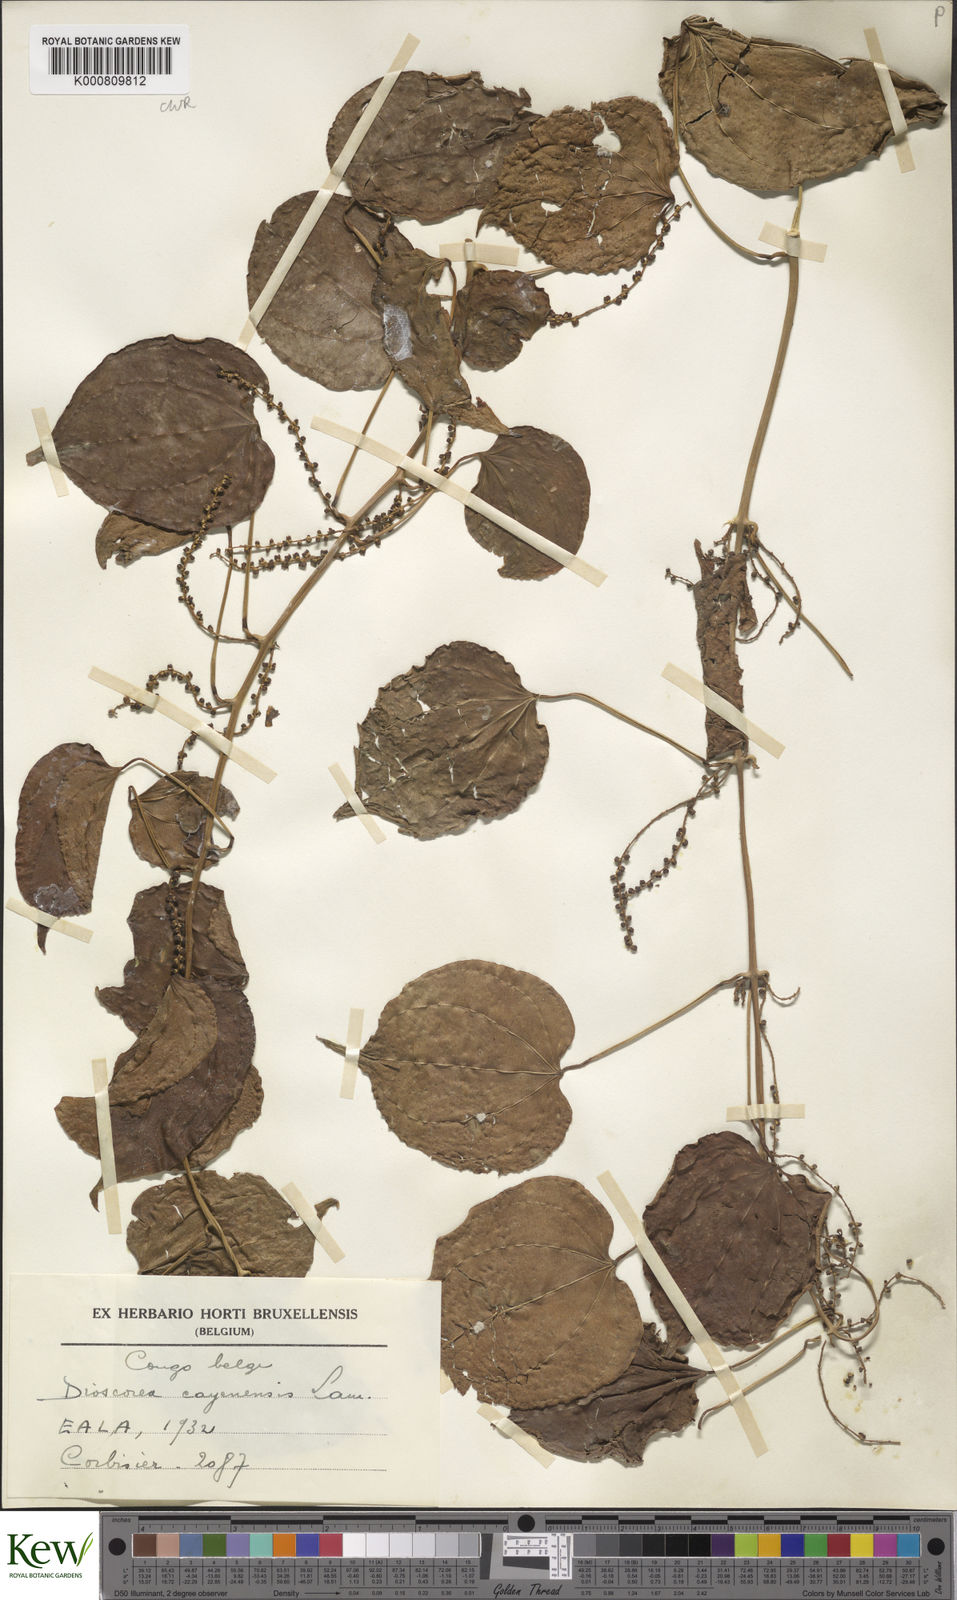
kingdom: Plantae
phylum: Tracheophyta
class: Liliopsida
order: Dioscoreales
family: Dioscoreaceae
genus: Dioscorea
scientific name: Dioscorea cayenensis
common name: Attoto yam
